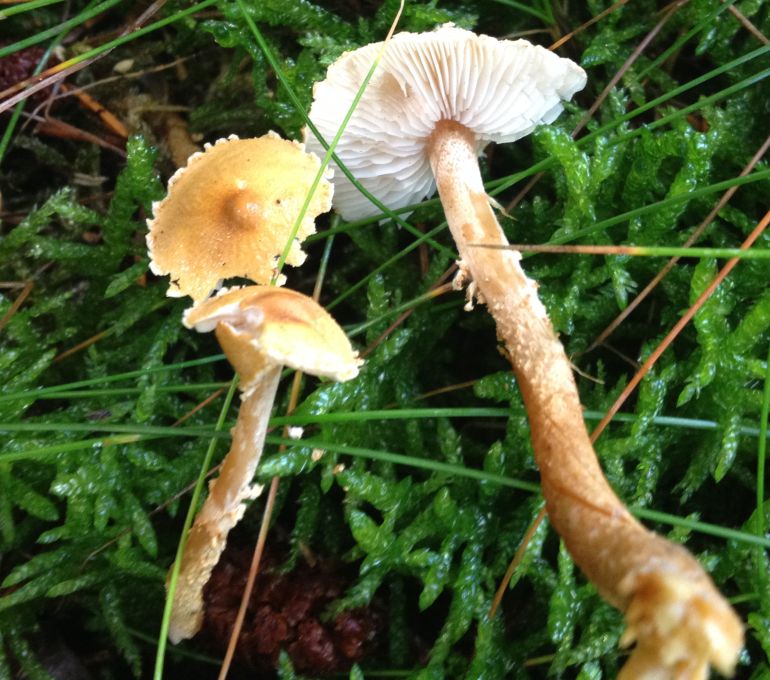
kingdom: Fungi
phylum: Basidiomycota
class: Agaricomycetes
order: Agaricales
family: Tricholomataceae
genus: Cystoderma
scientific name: Cystoderma amianthinum
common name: okkergul grynhat
